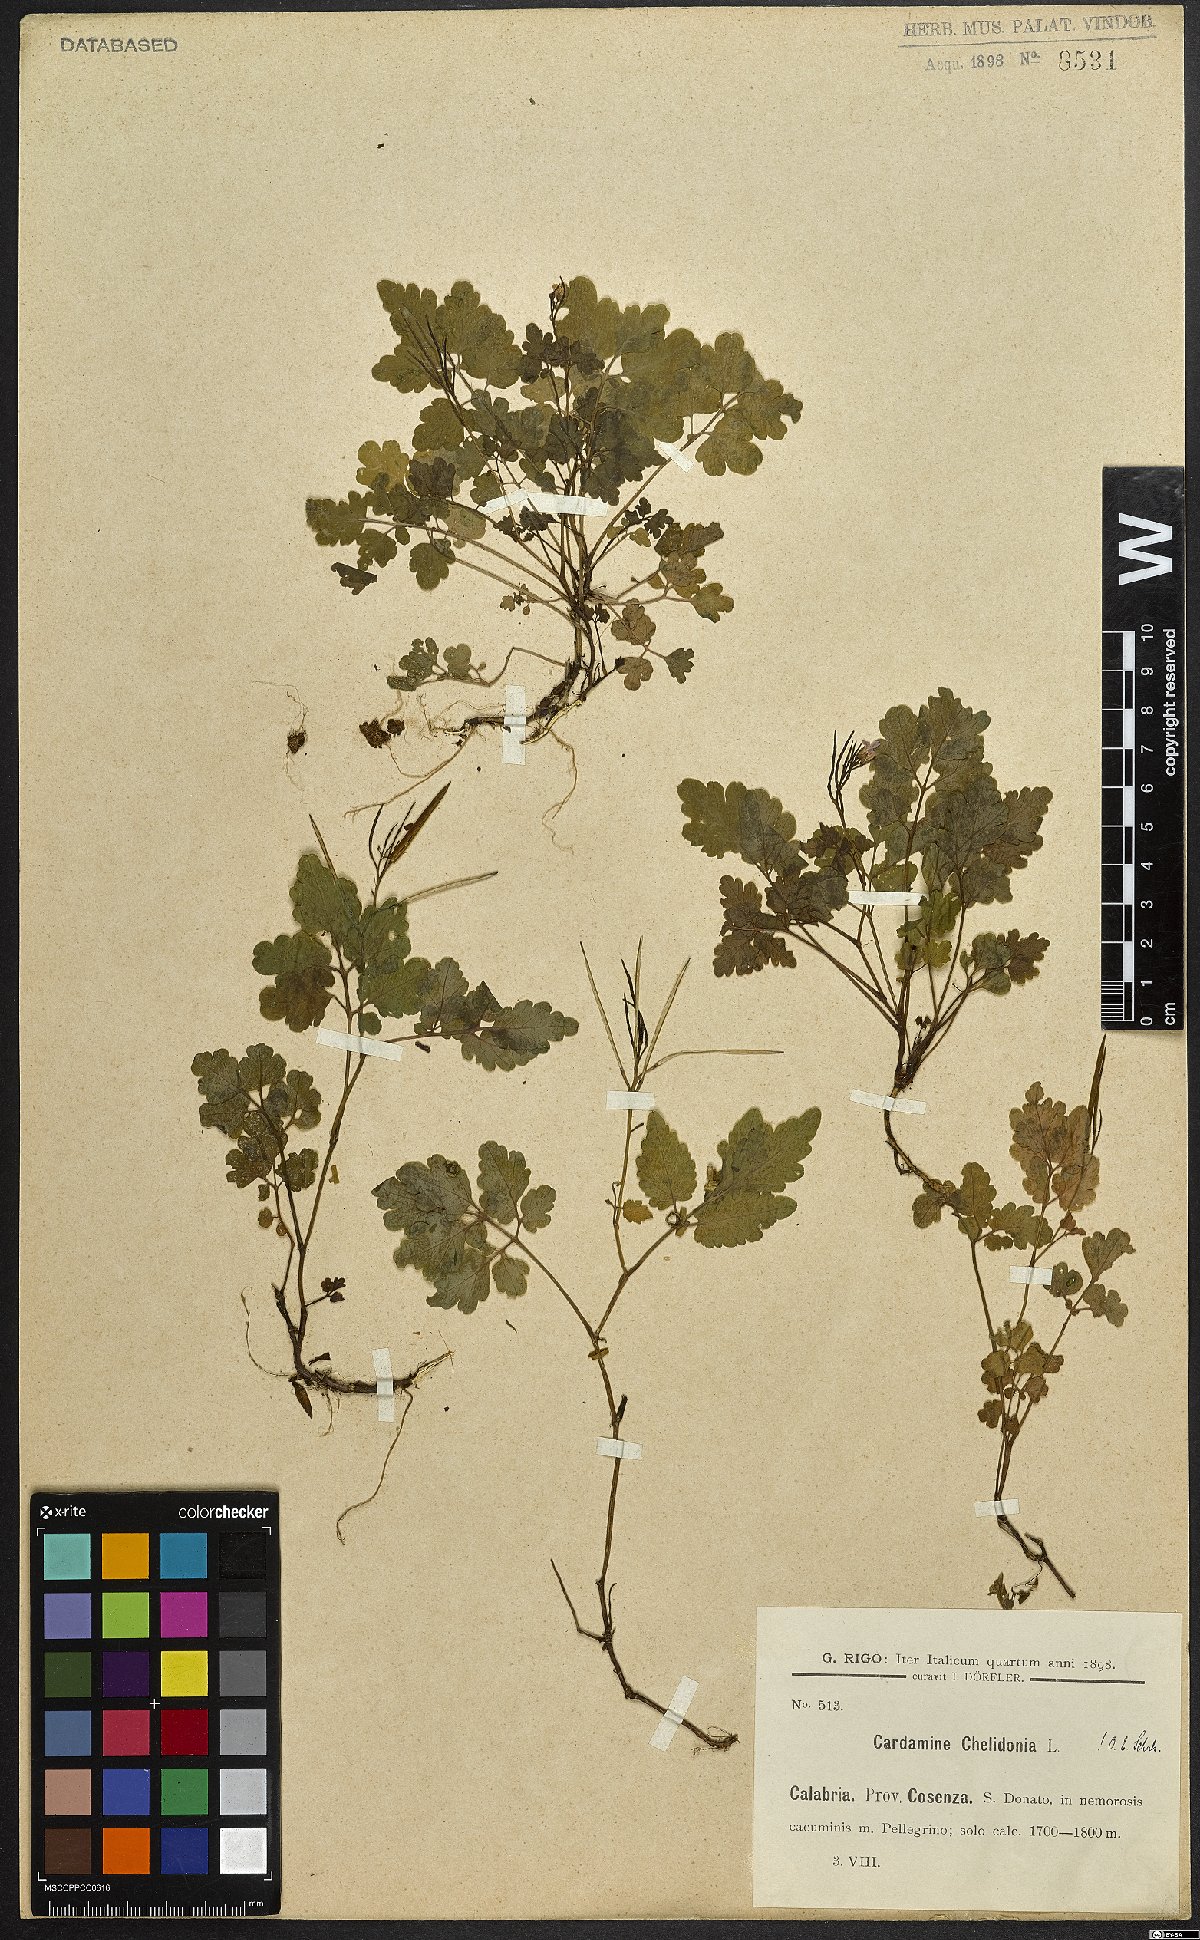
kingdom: Plantae
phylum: Tracheophyta
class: Magnoliopsida
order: Brassicales
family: Brassicaceae
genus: Cardamine
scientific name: Cardamine chelidonia
